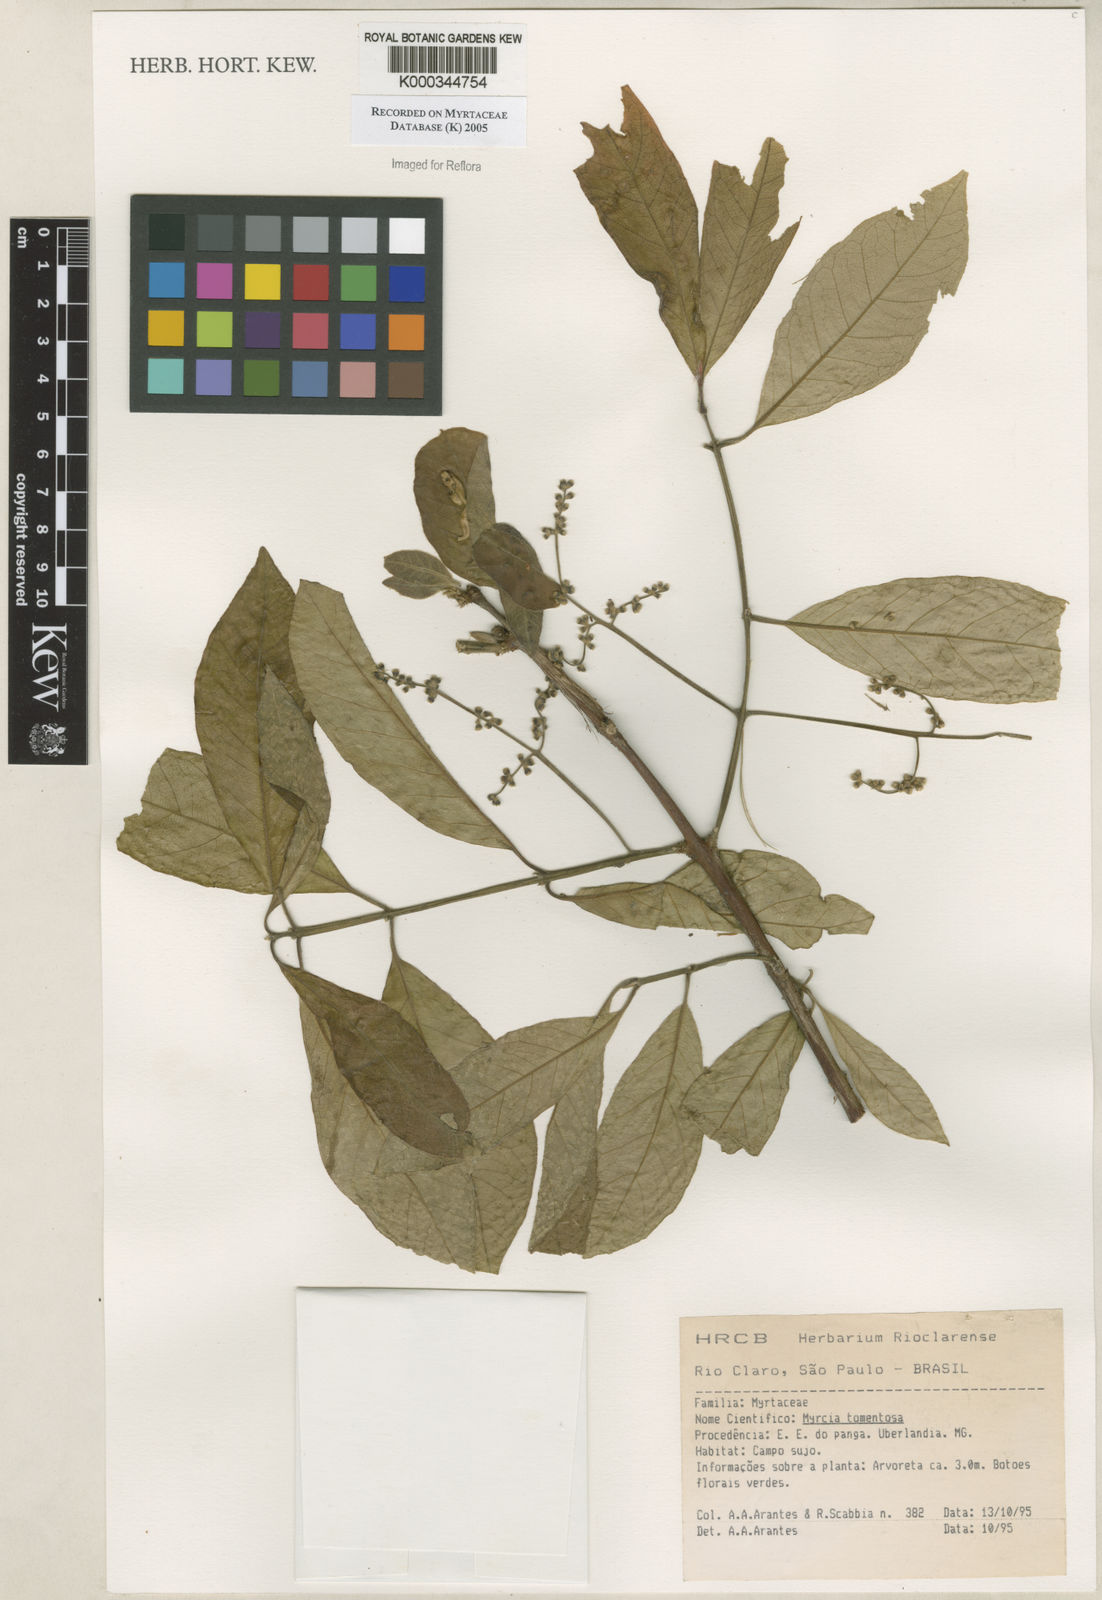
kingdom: Plantae
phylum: Tracheophyta
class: Magnoliopsida
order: Myrtales
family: Myrtaceae
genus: Myrcia
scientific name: Myrcia tomentosa
